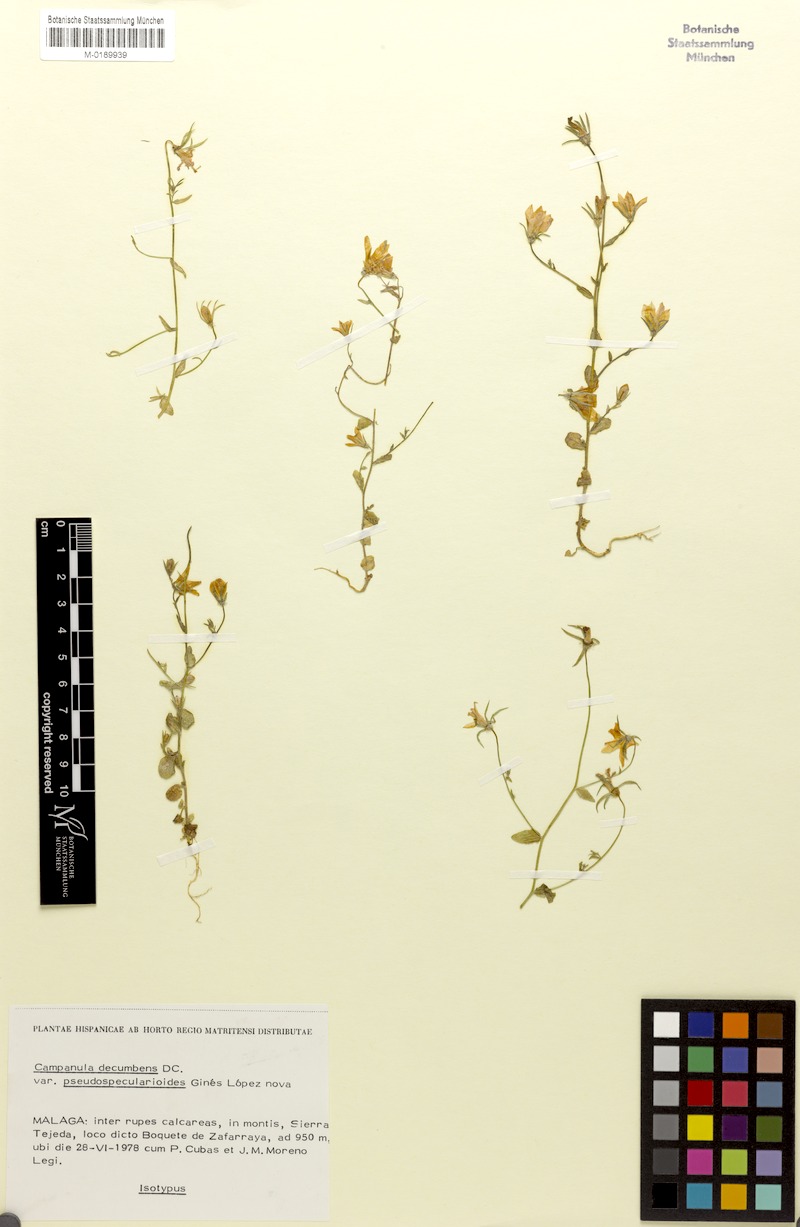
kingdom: Plantae
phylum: Tracheophyta
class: Magnoliopsida
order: Asterales
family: Campanulaceae
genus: Campanula
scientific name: Campanula cabezudoi
